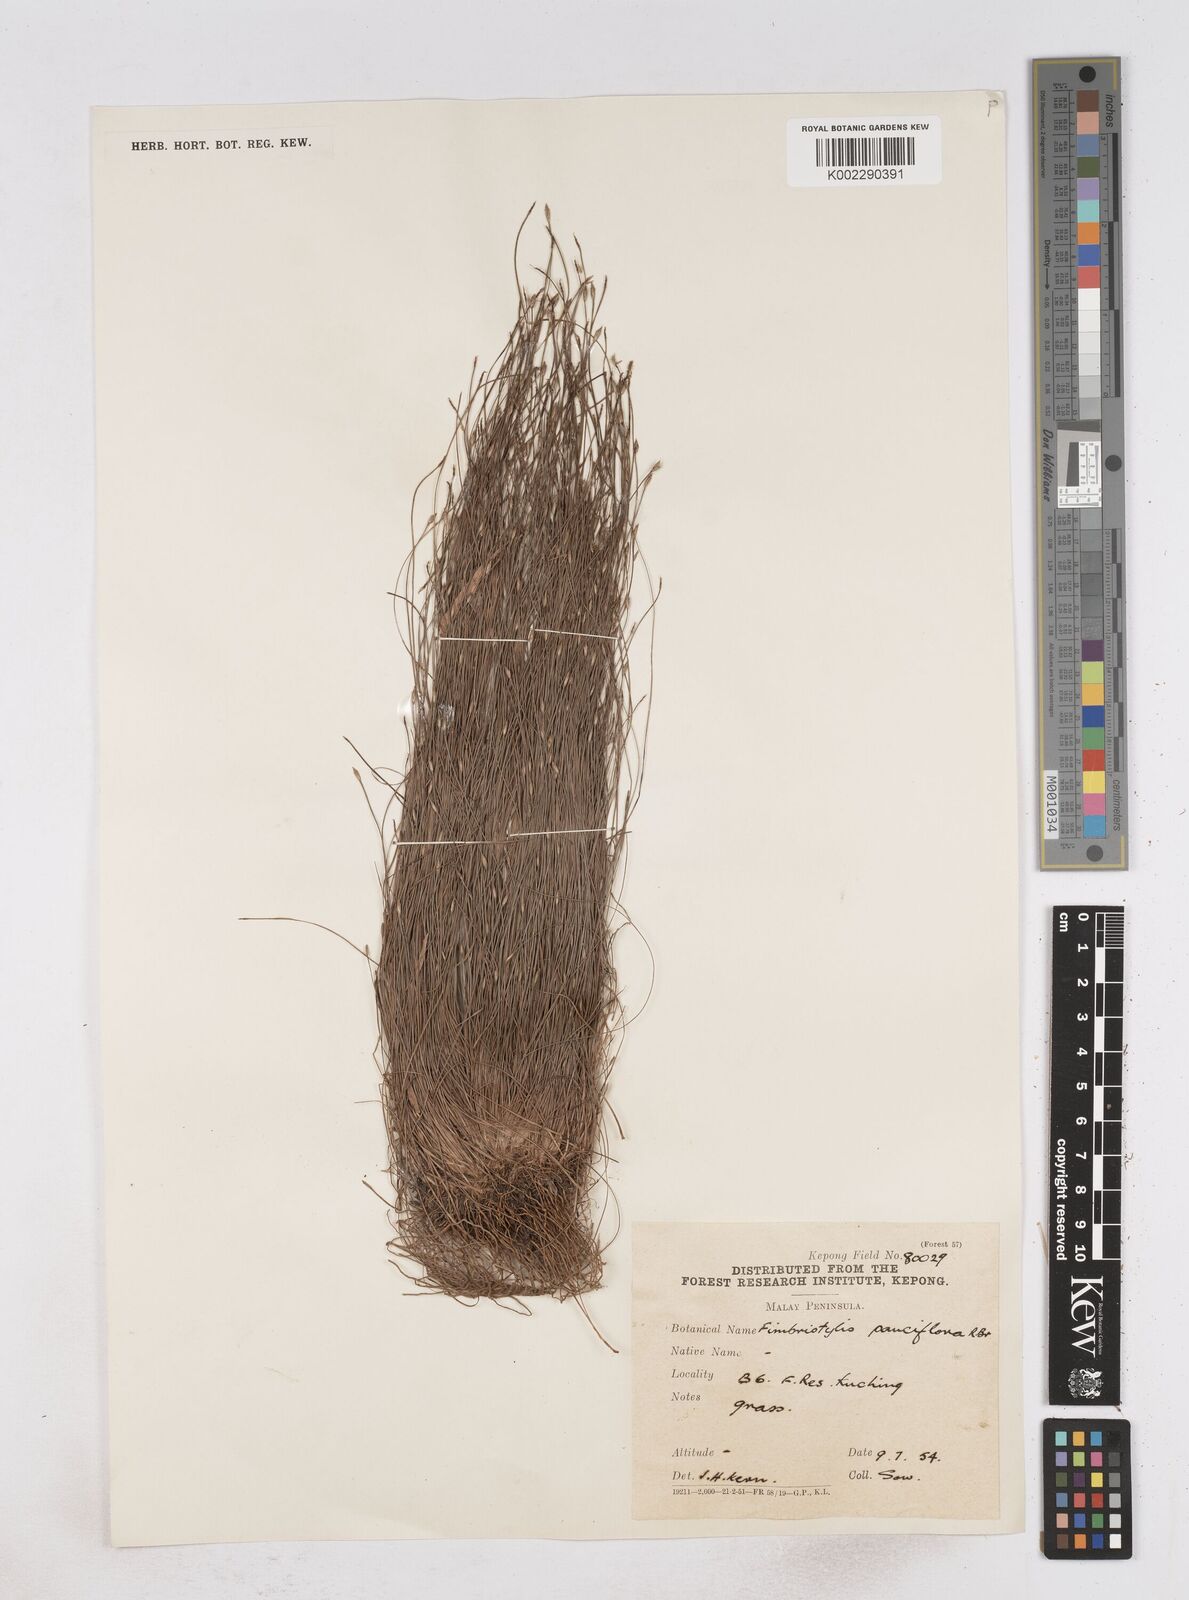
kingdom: Plantae
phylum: Tracheophyta
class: Liliopsida
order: Poales
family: Cyperaceae
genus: Fimbristylis
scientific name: Fimbristylis pauciflora
